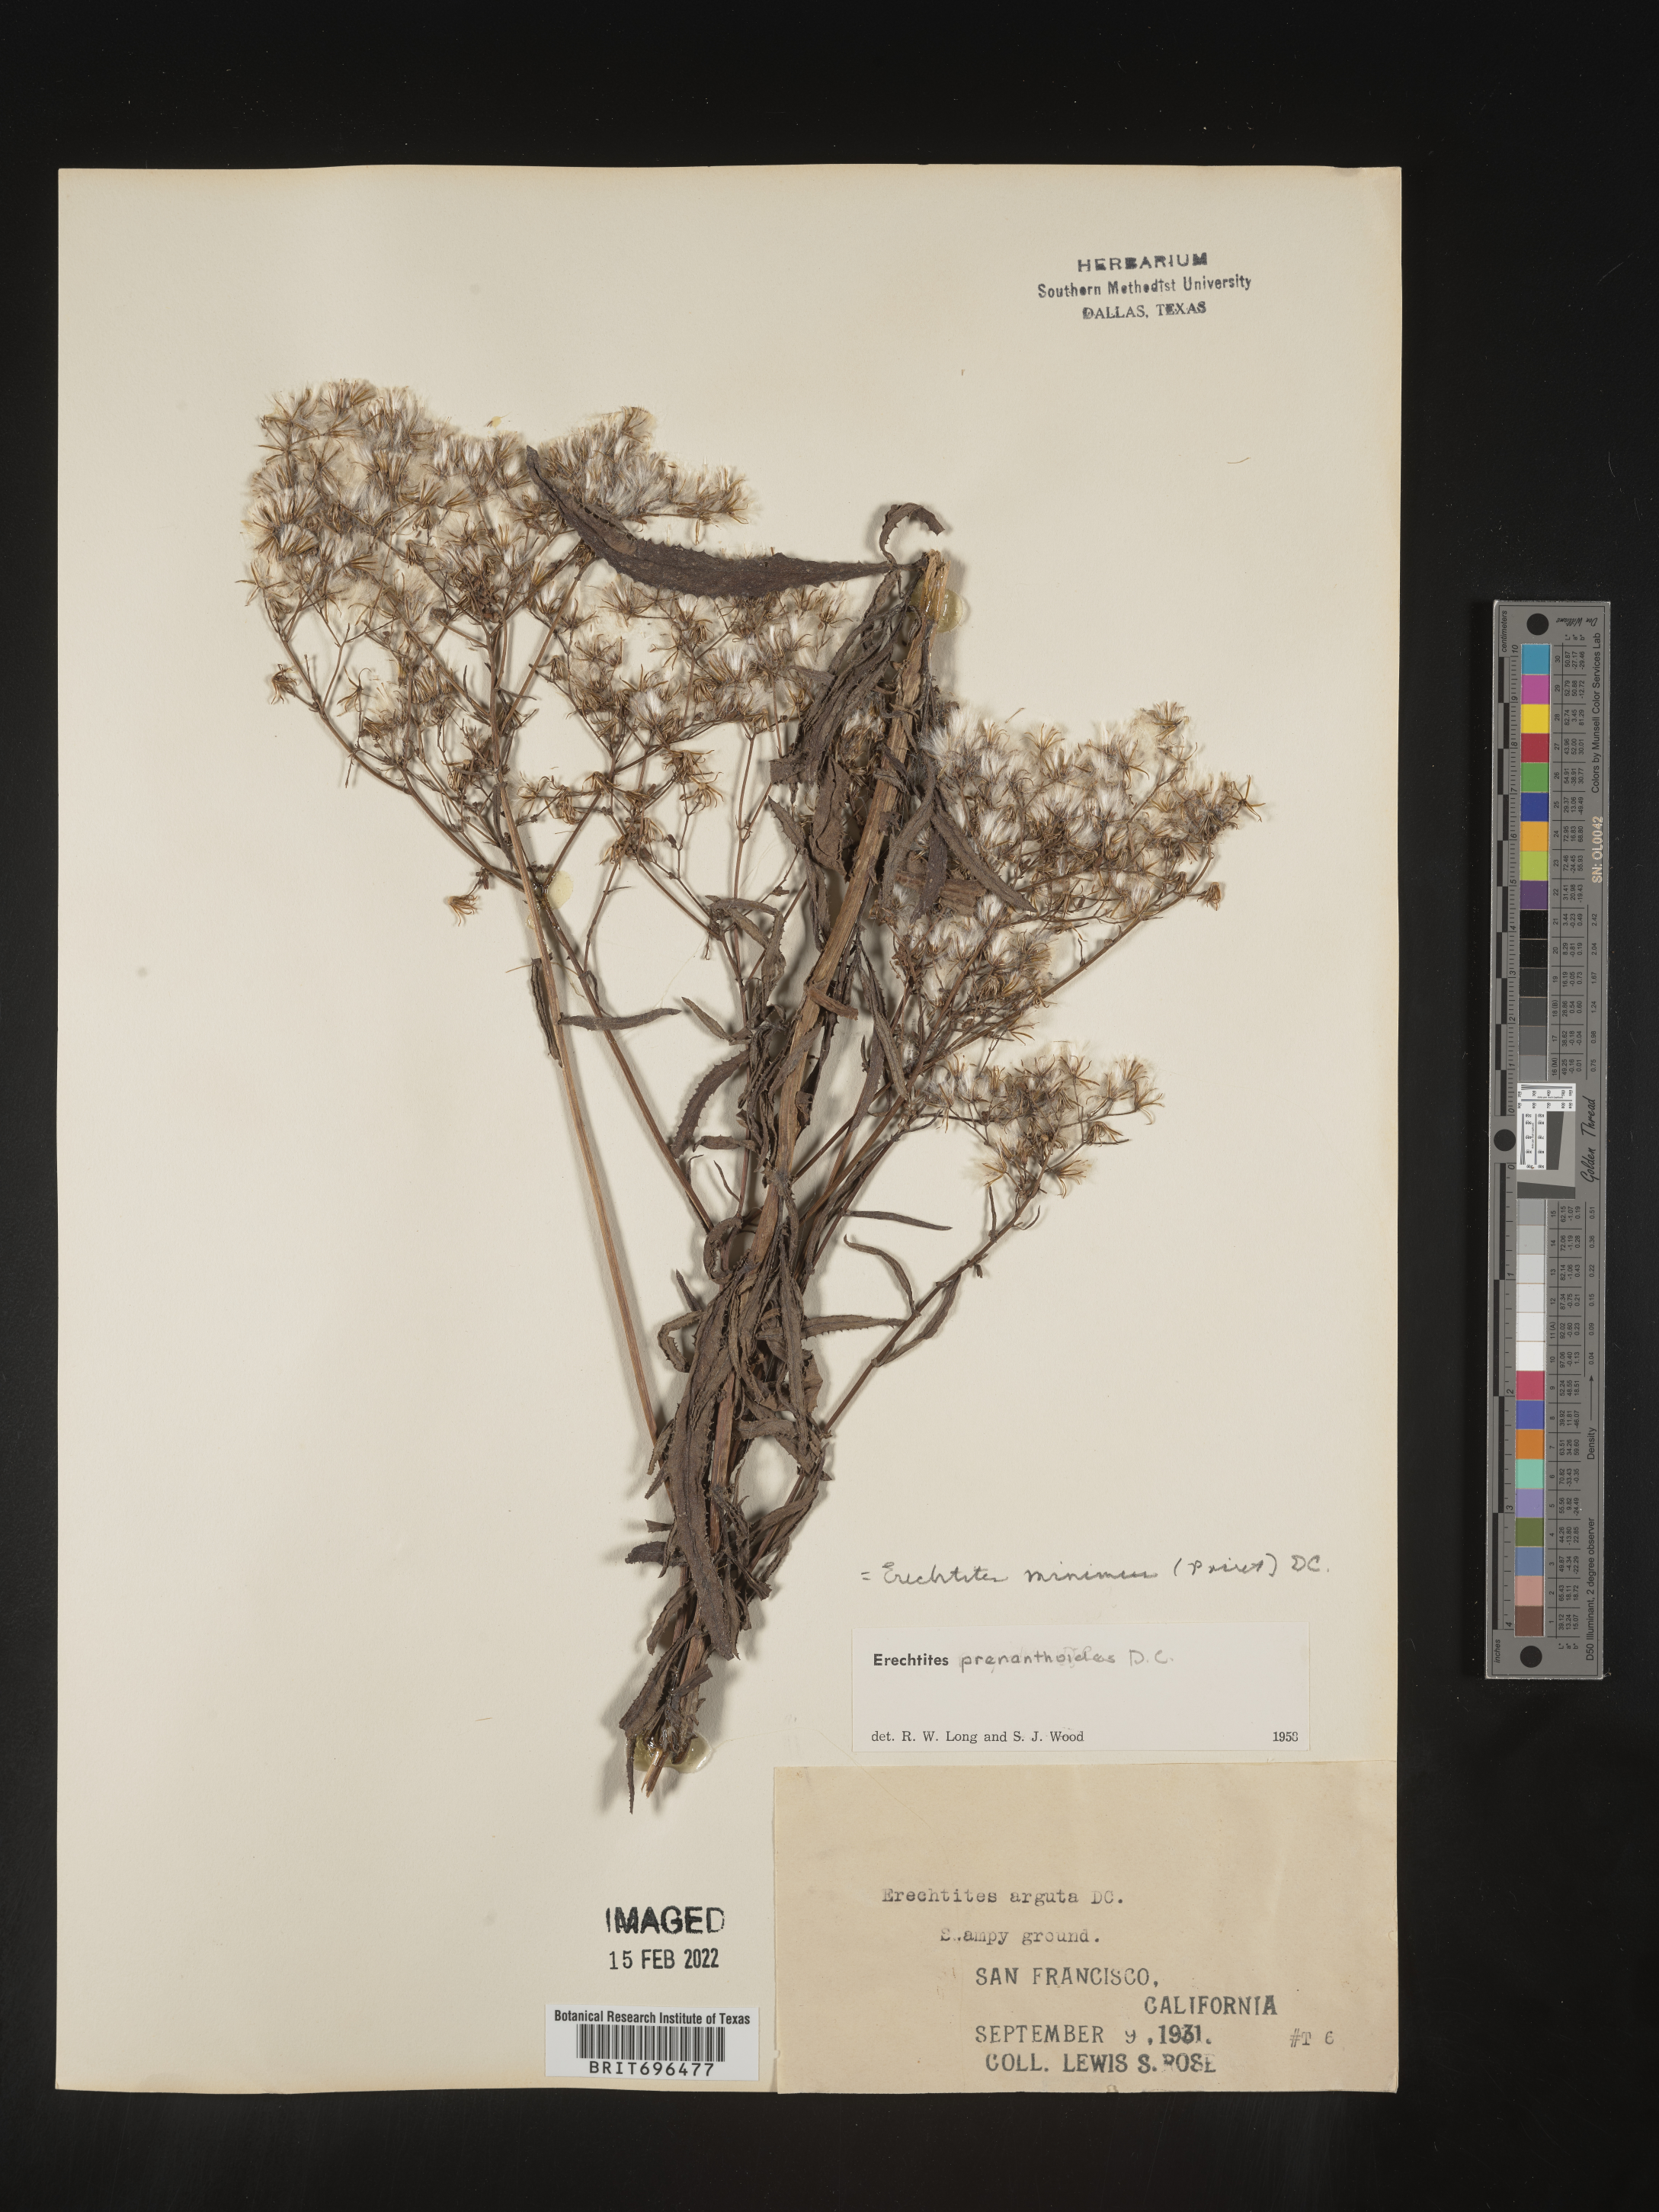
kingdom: Plantae
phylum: Tracheophyta
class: Magnoliopsida
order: Asterales
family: Asteraceae
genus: Senecio
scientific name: Senecio minimus
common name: Toothed fireweed
